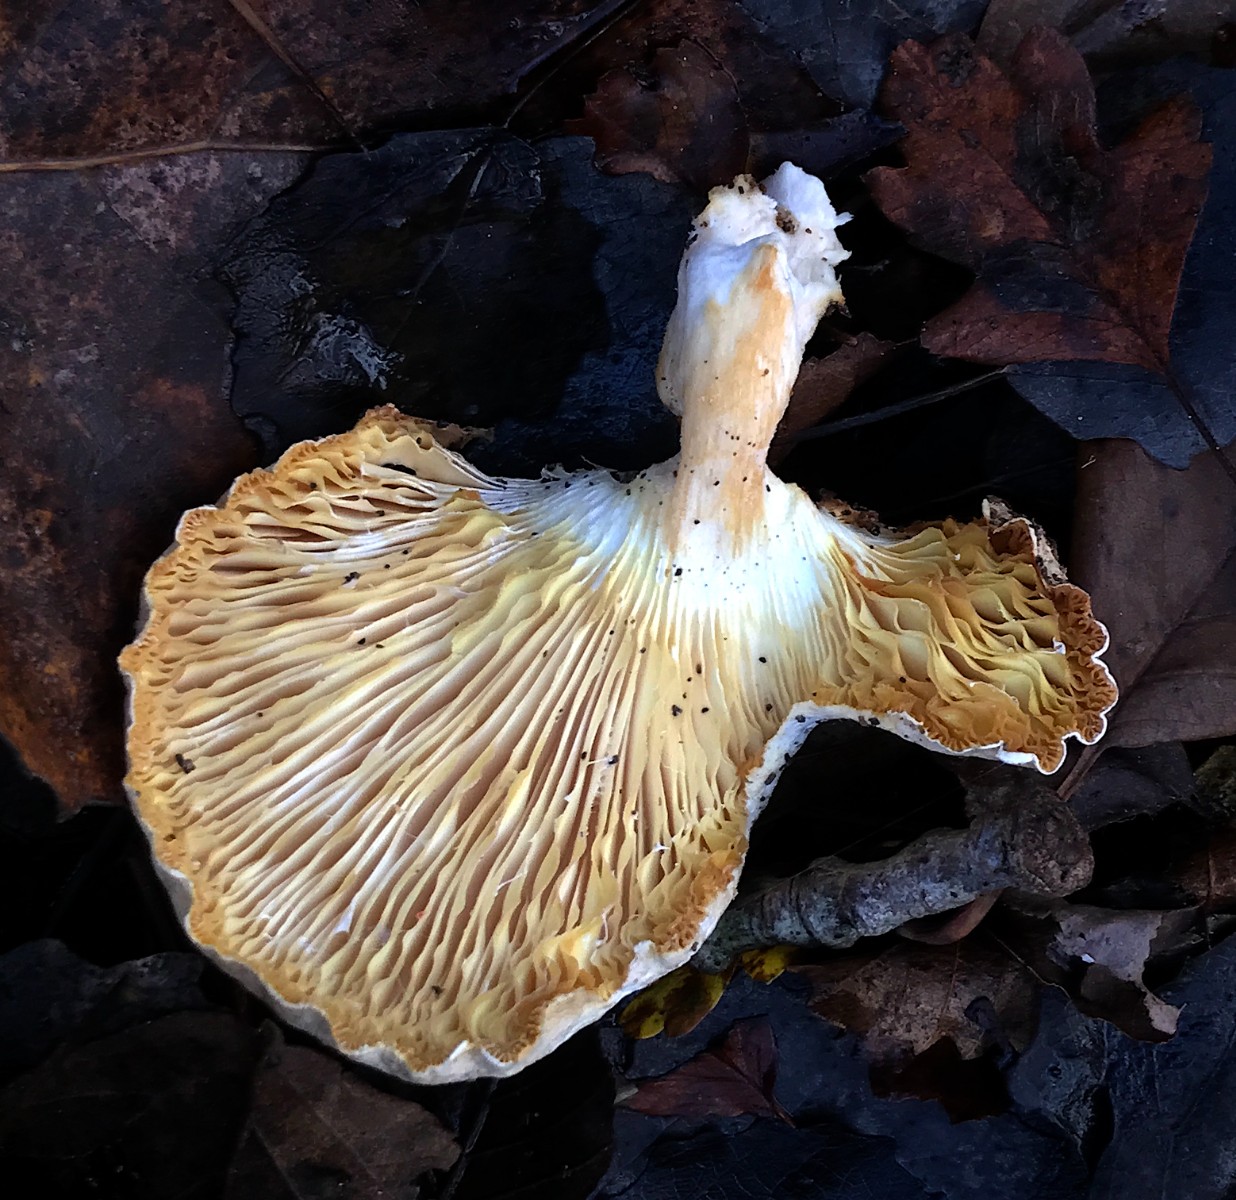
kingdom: Fungi
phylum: Basidiomycota
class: Agaricomycetes
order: Agaricales
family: Pleurotaceae
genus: Pleurotus
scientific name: Pleurotus dryinus
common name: korkagtig østershat
